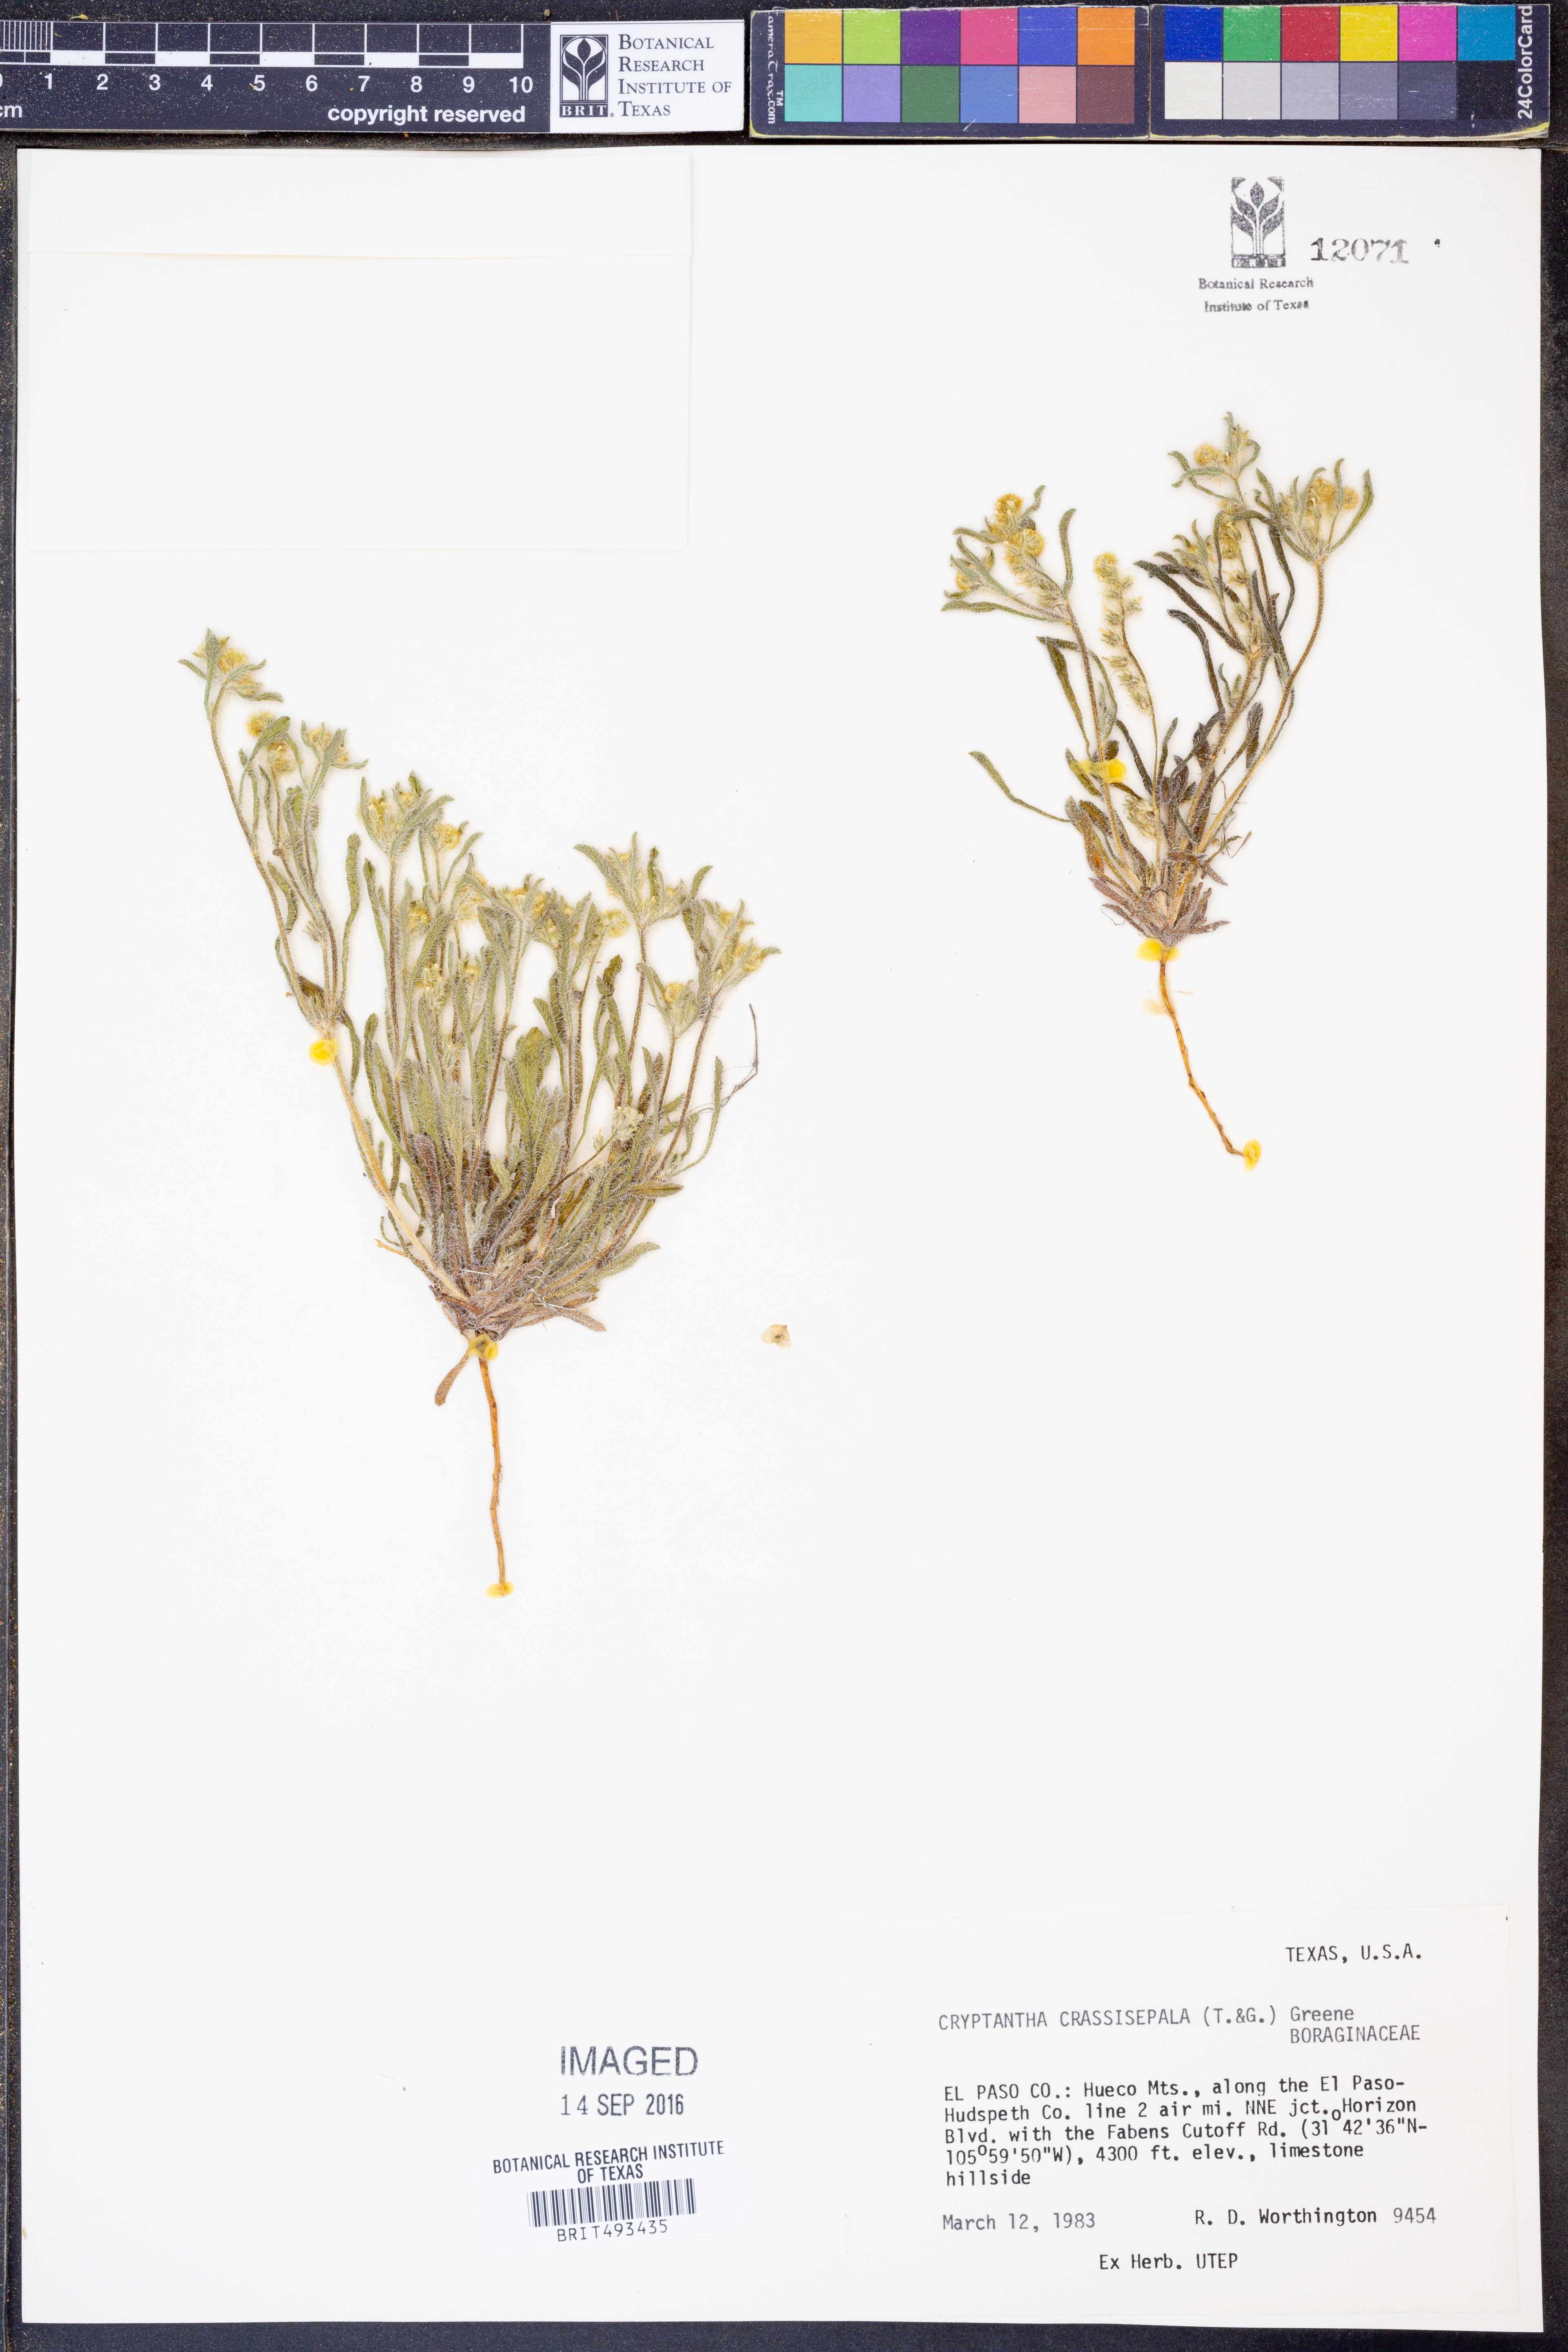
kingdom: Plantae
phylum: Tracheophyta
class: Magnoliopsida
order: Boraginales
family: Boraginaceae
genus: Cryptantha
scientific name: Cryptantha crassisepala
